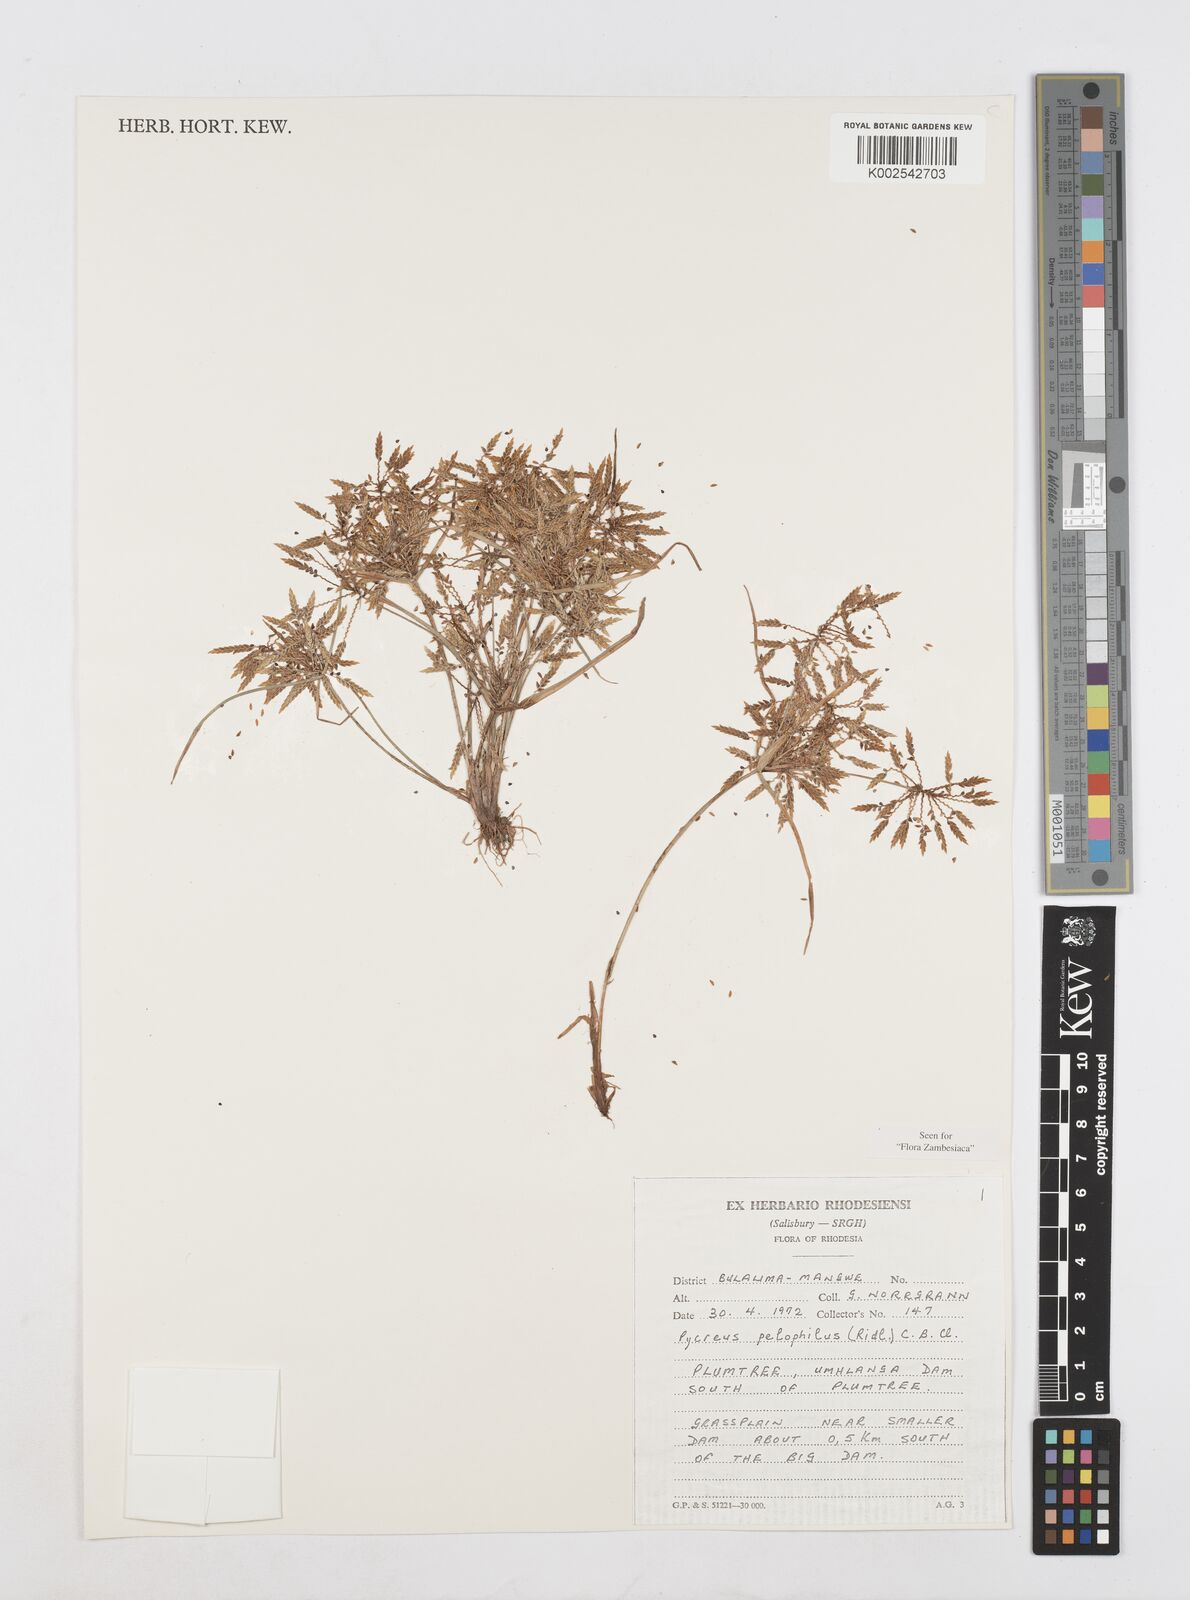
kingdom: Plantae
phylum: Tracheophyta
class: Liliopsida
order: Poales
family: Cyperaceae
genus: Cyperus
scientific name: Cyperus pelophilus
